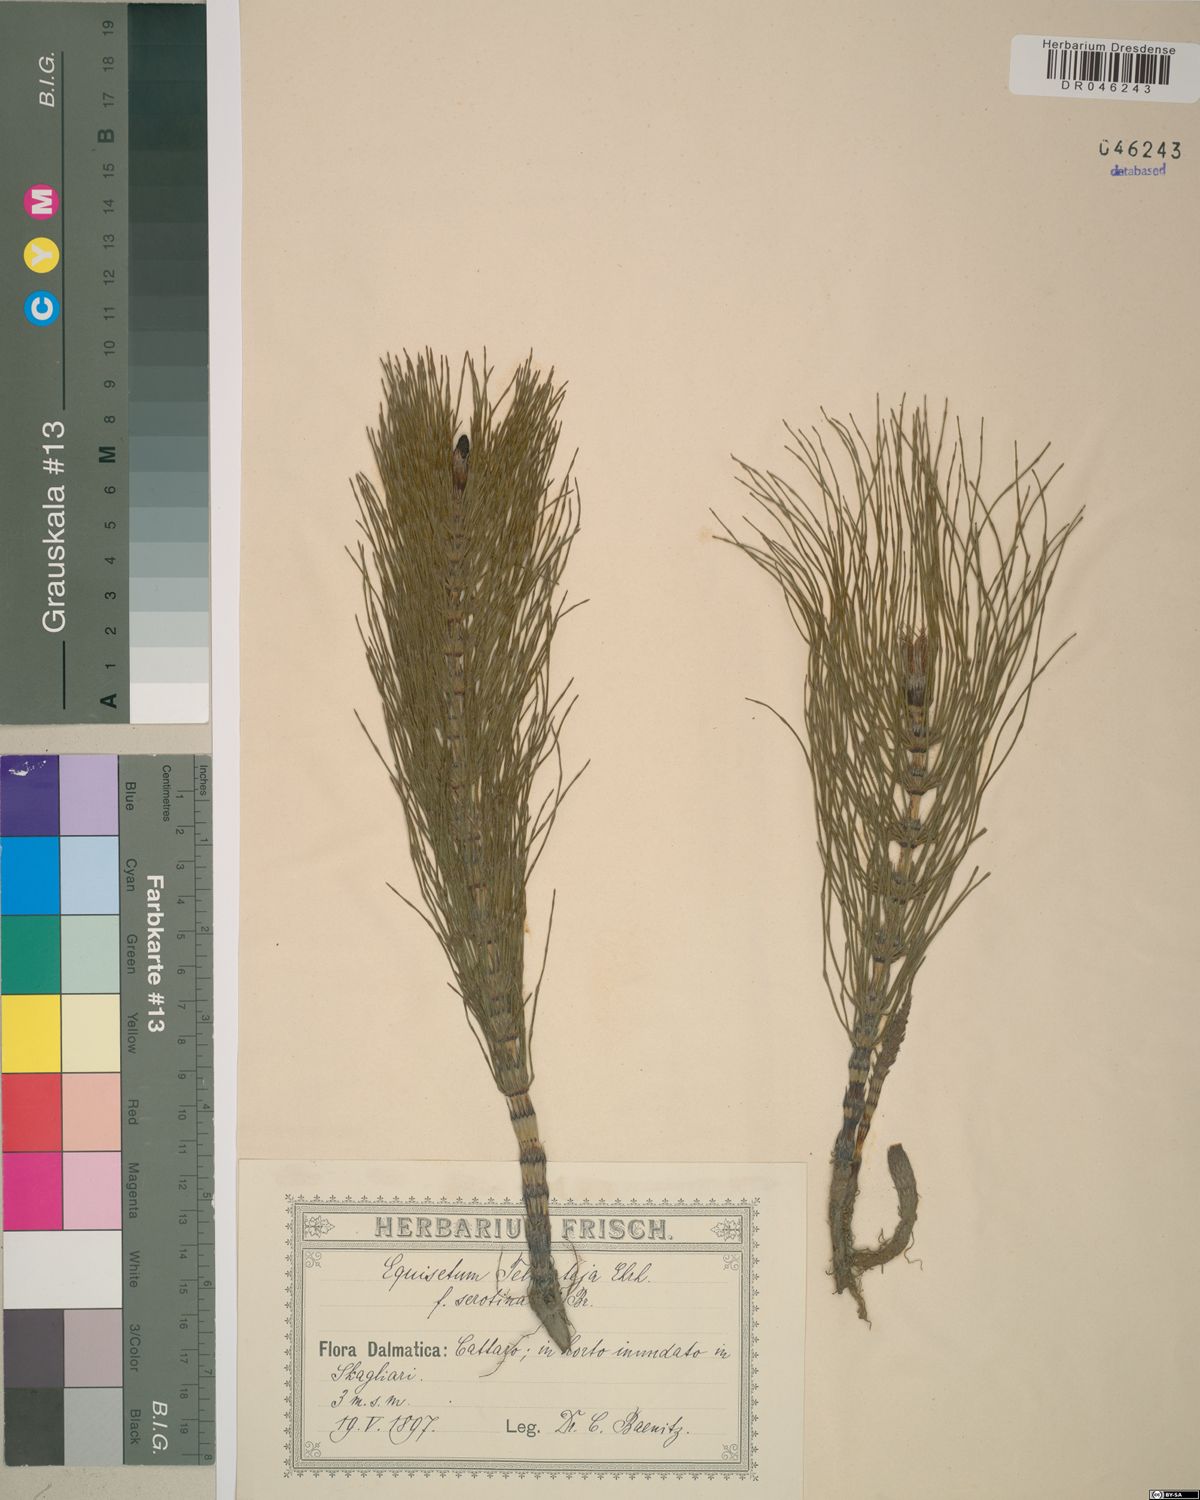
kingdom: Plantae
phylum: Tracheophyta
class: Polypodiopsida
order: Equisetales
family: Equisetaceae
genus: Equisetum
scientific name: Equisetum telmateia
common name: Great horsetail
